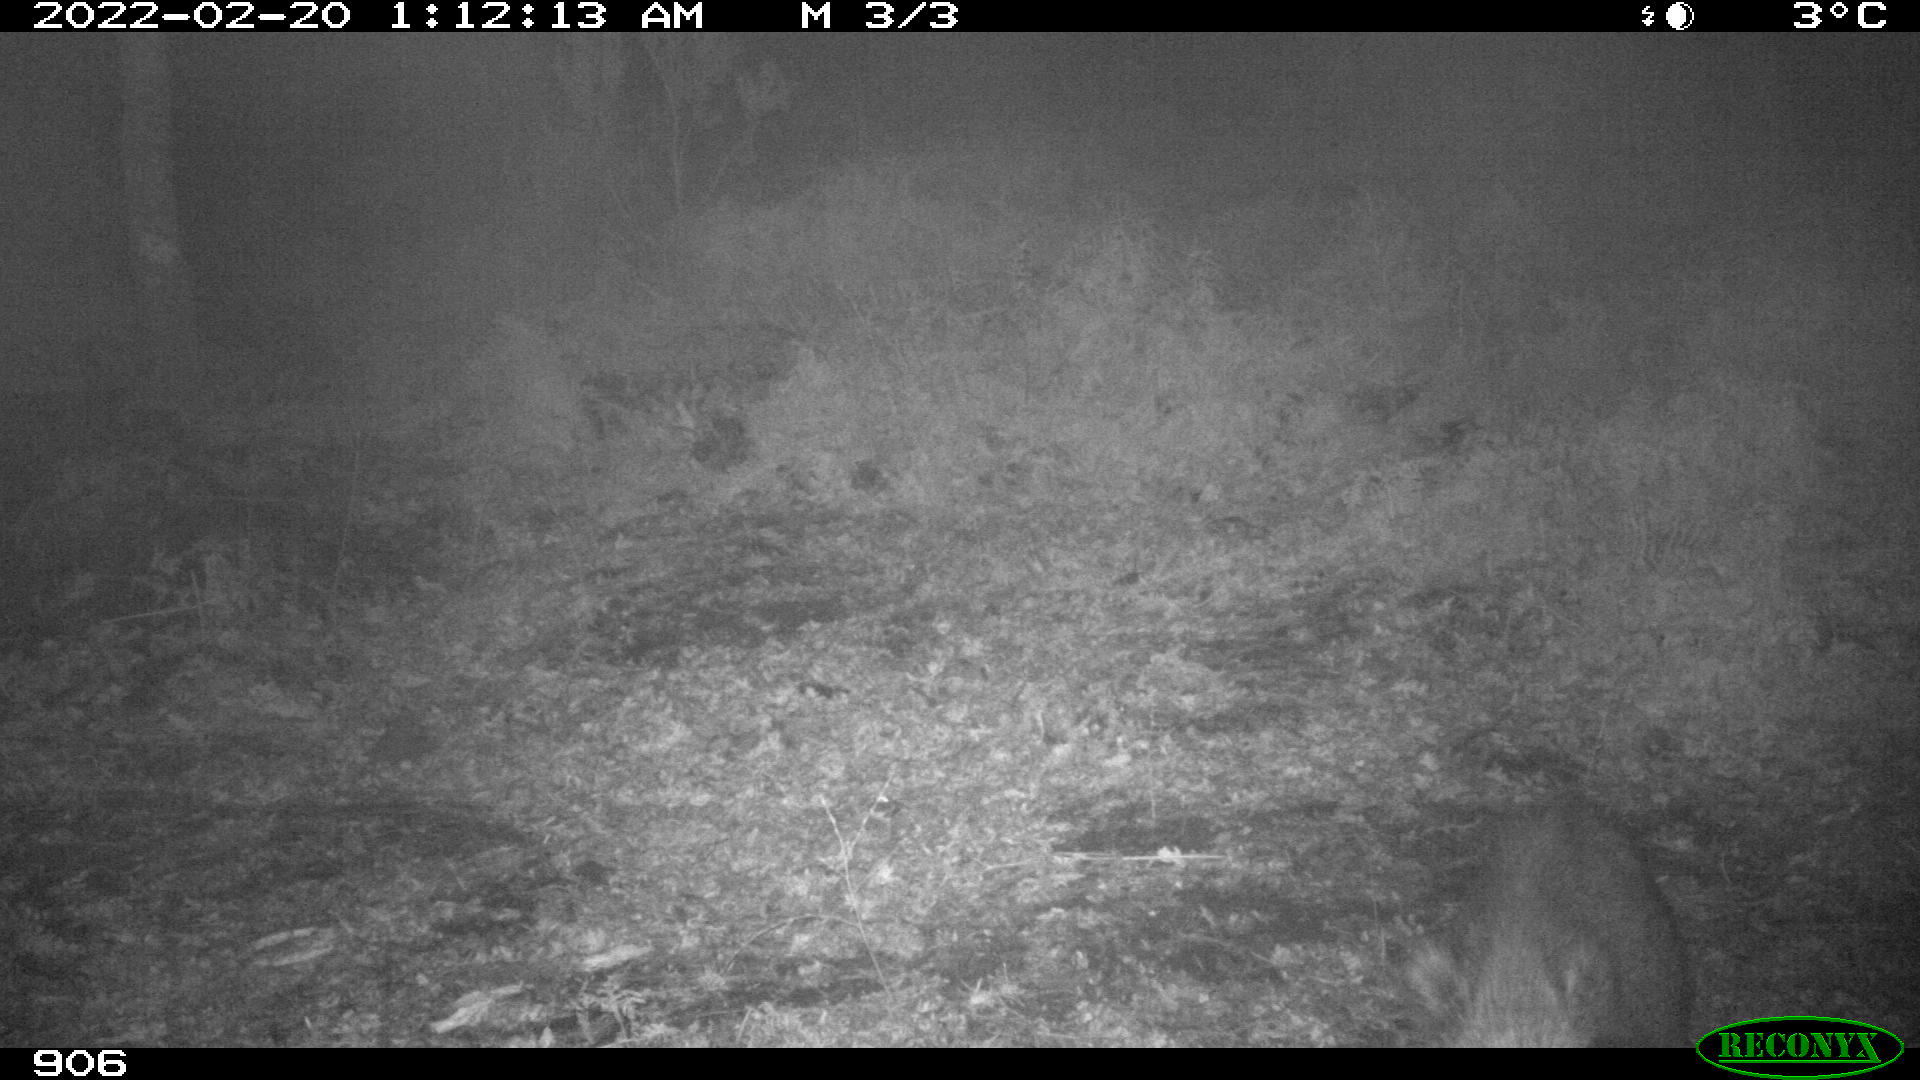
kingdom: Animalia
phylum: Chordata
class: Mammalia
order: Artiodactyla
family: Suidae
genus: Sus
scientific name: Sus scrofa
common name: Wild boar
